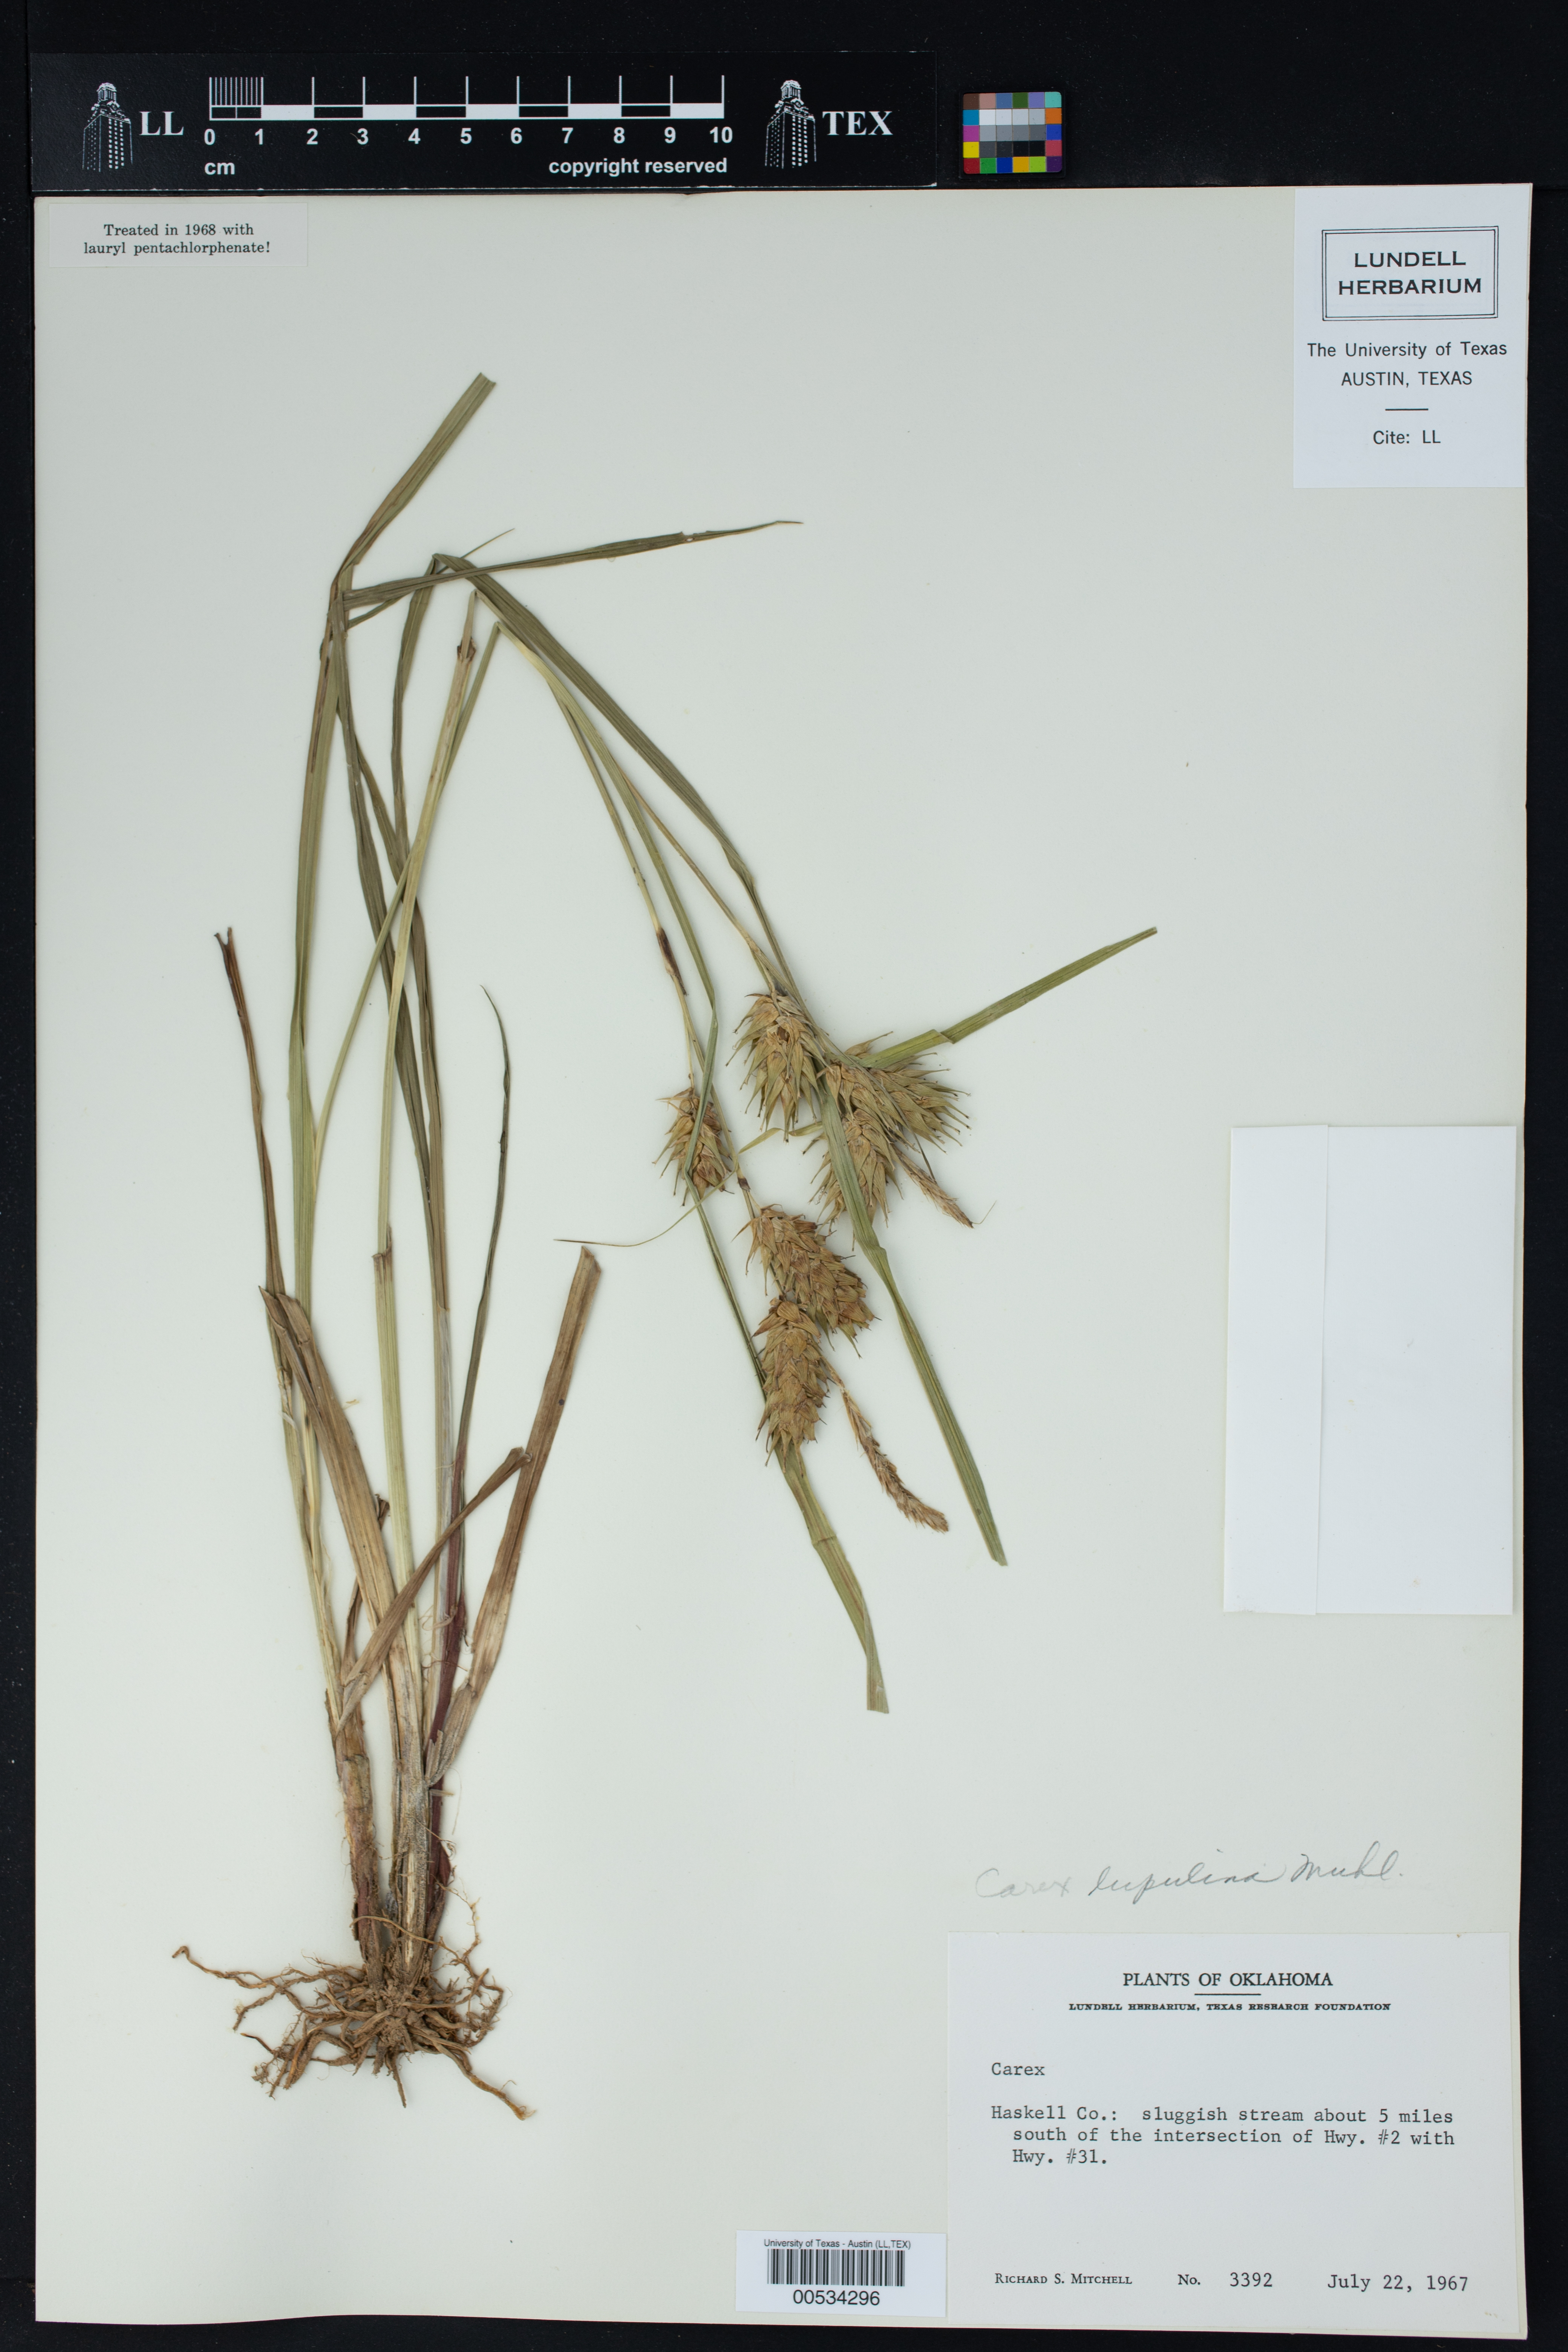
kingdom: Plantae
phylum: Tracheophyta
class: Liliopsida
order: Poales
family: Cyperaceae
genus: Carex
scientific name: Carex lupulina
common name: Hop sedge
